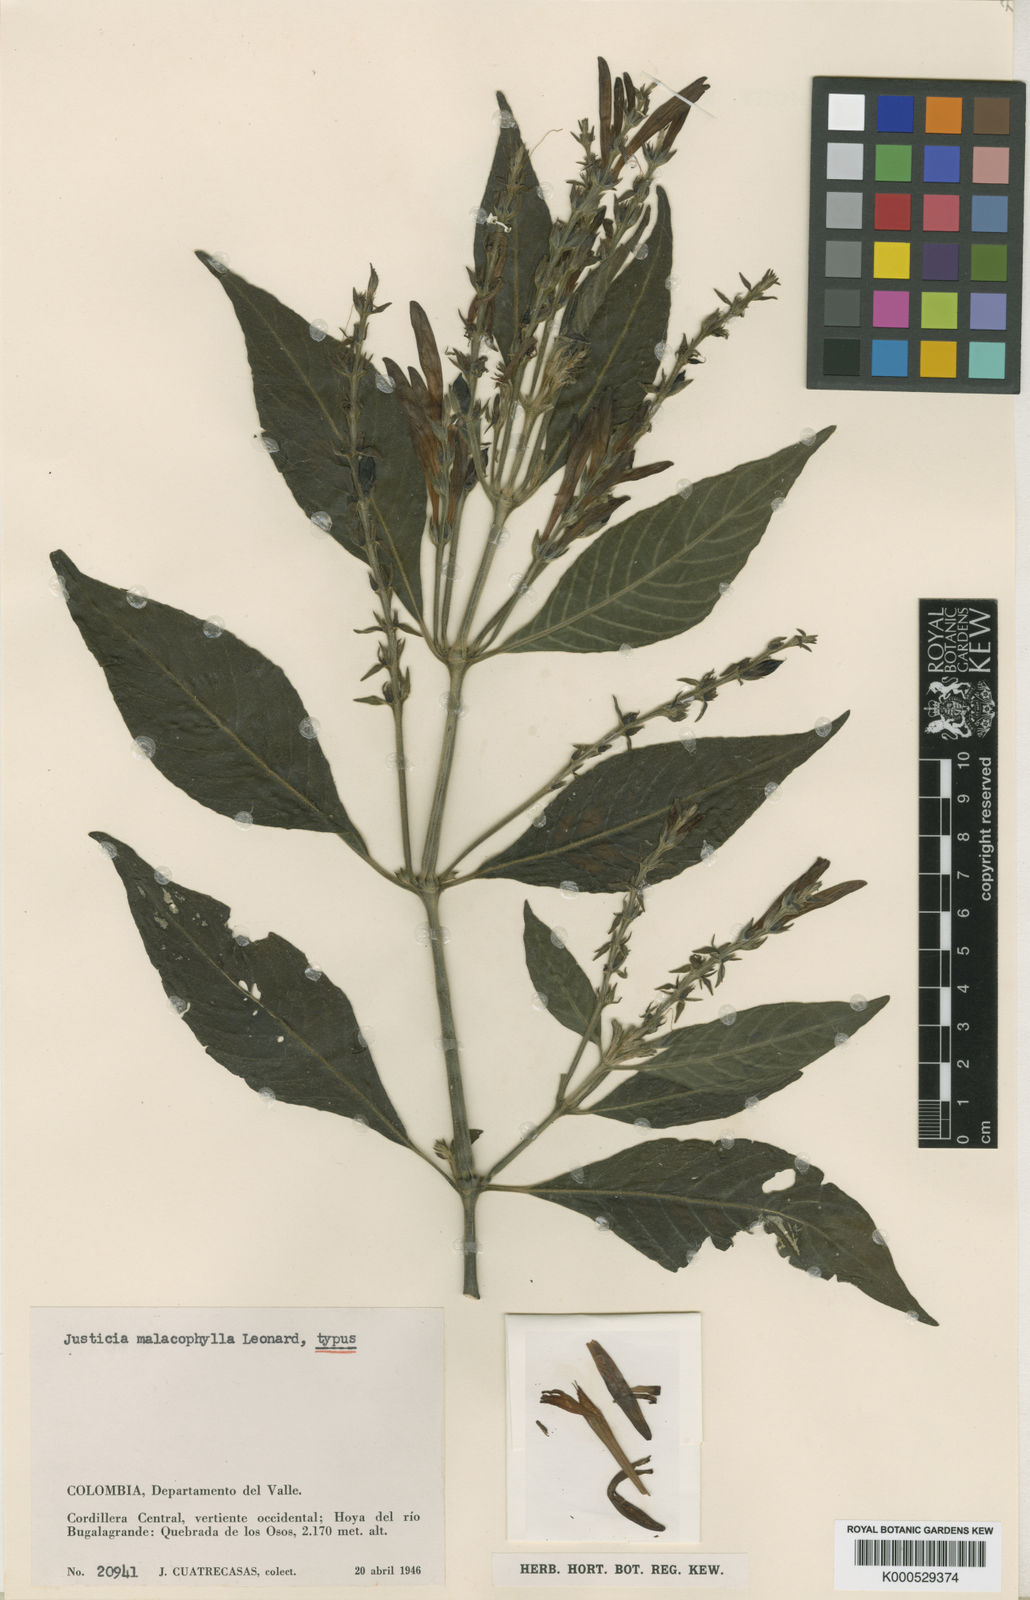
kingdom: Plantae
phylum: Tracheophyta
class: Magnoliopsida
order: Lamiales
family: Acanthaceae
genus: Justicia
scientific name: Justicia malacophylla
